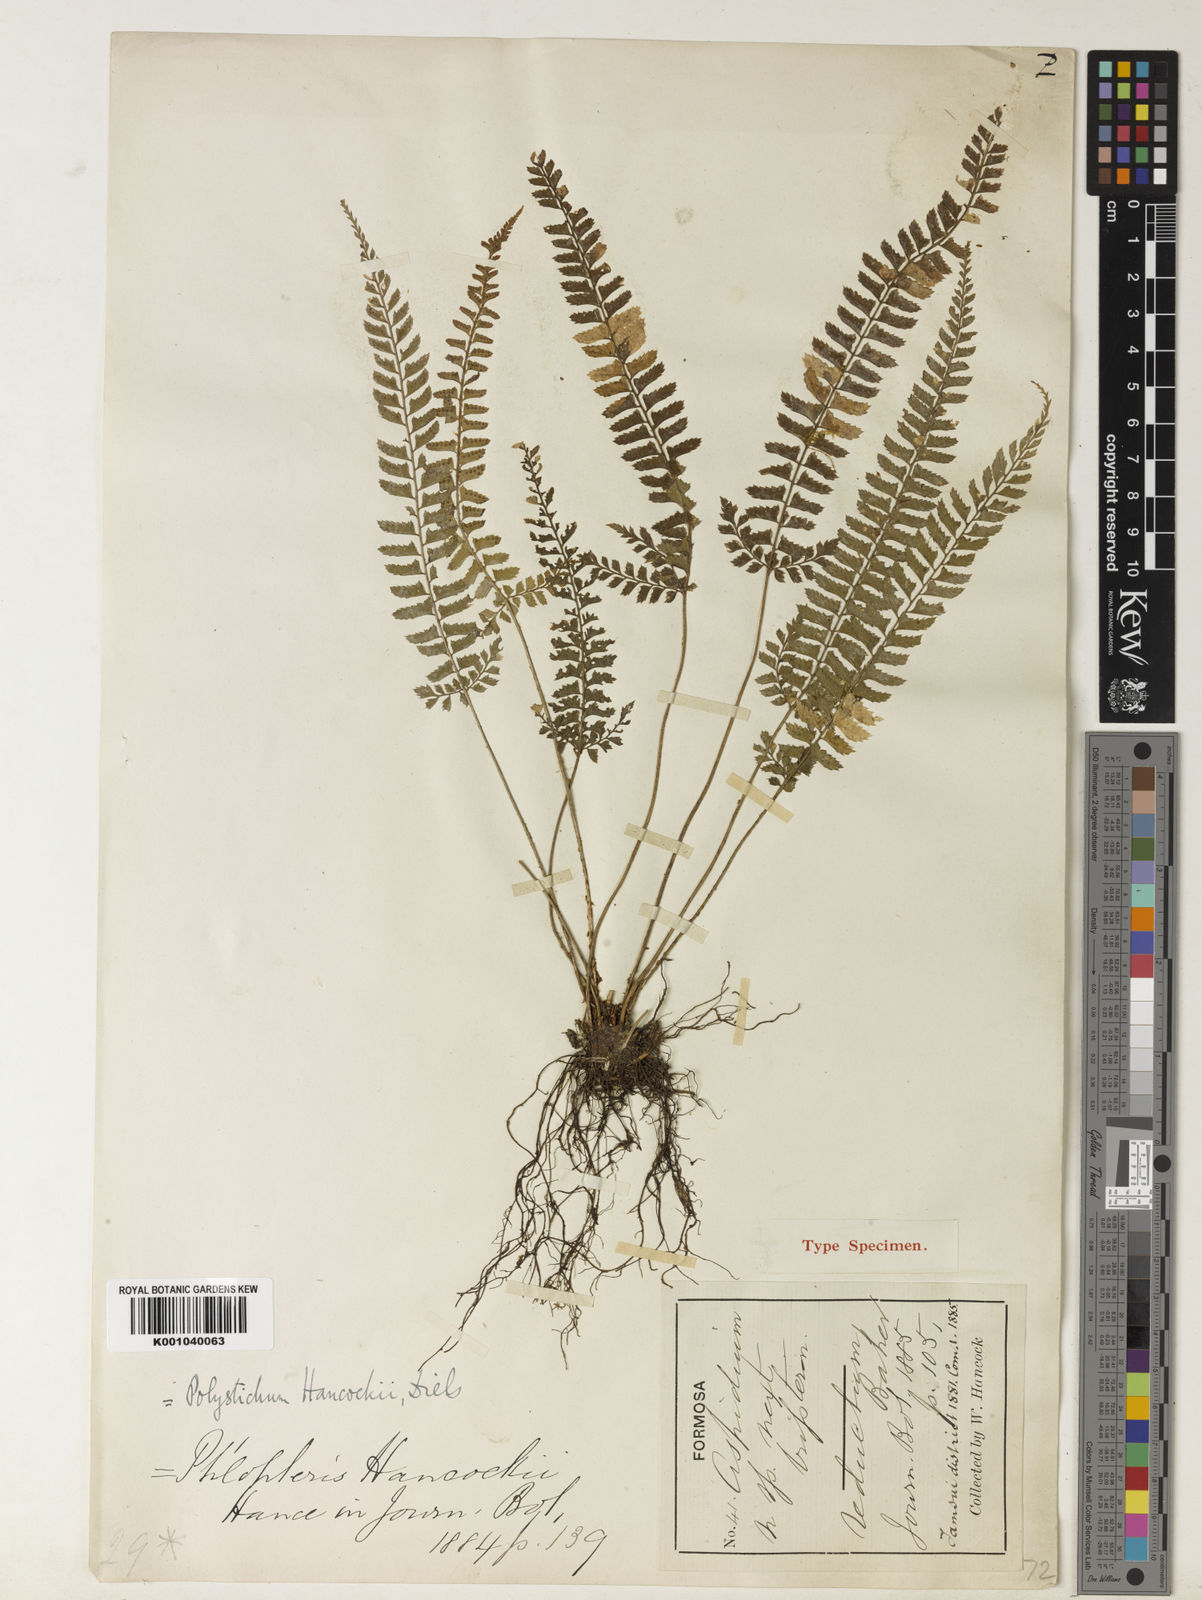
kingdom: Plantae
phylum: Tracheophyta
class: Polypodiopsida
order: Polypodiales
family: Dryopteridaceae
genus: Polystichum
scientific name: Polystichum hancockii
